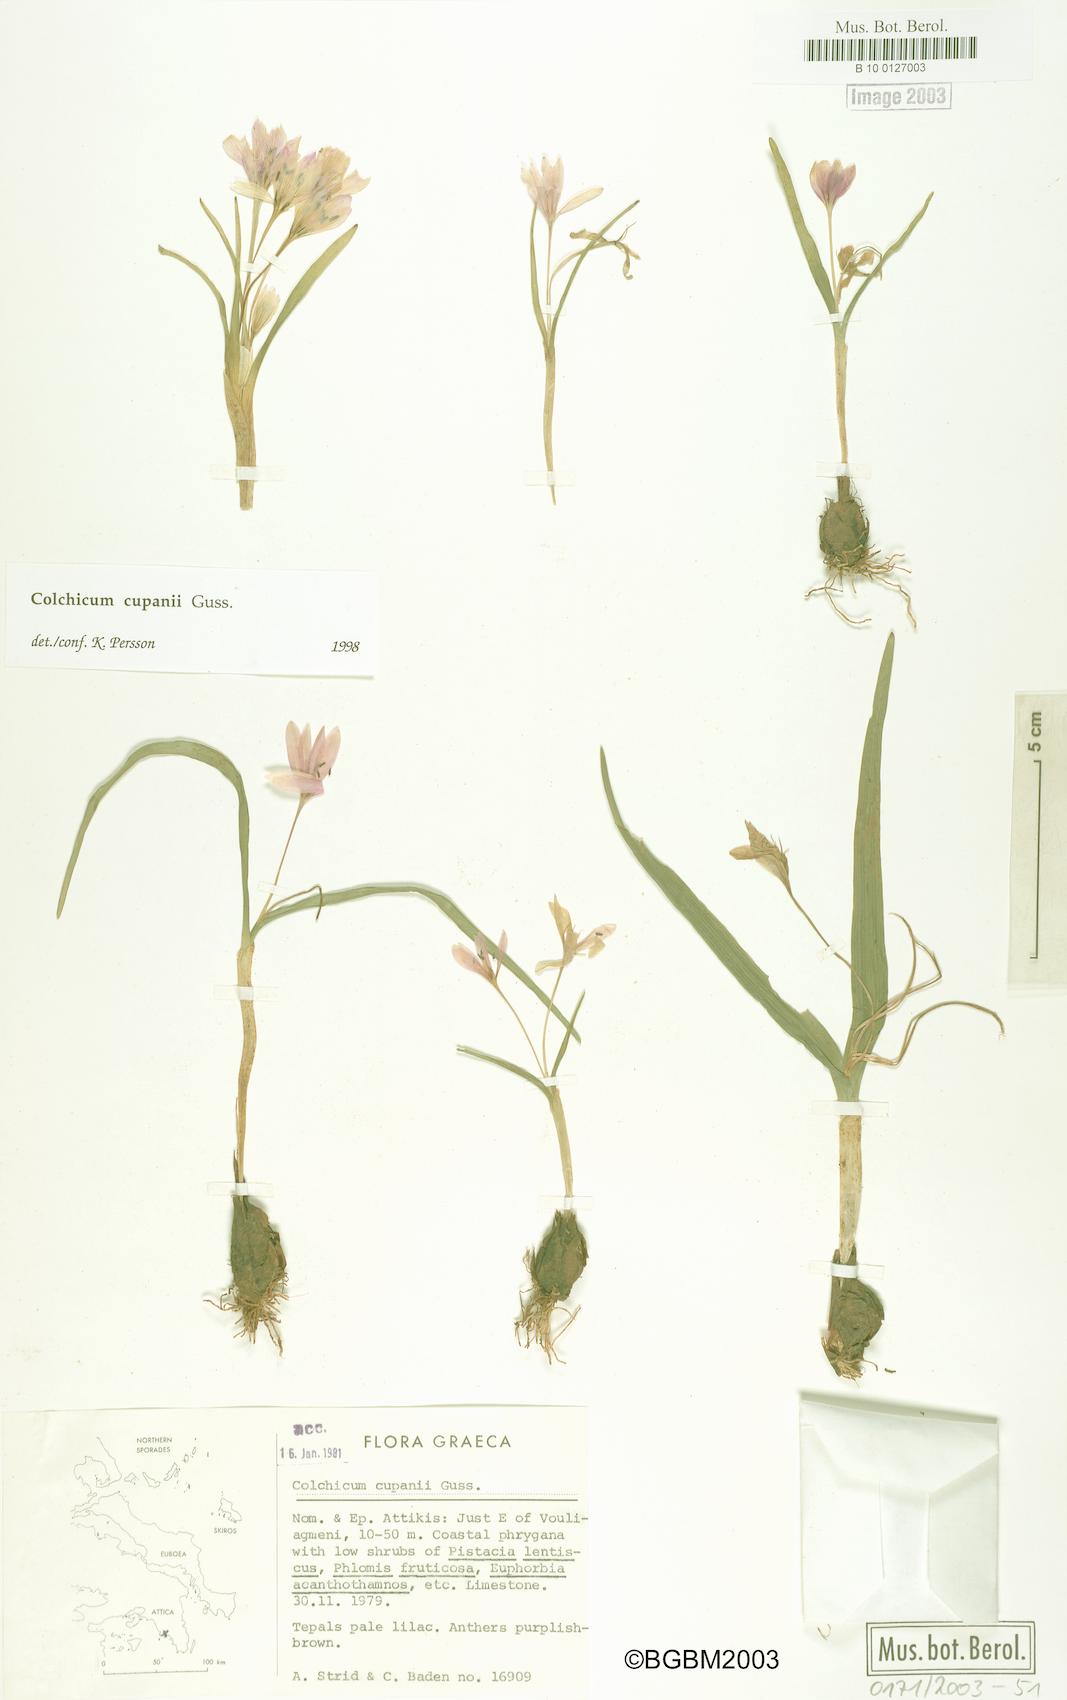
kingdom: Plantae
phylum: Tracheophyta
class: Liliopsida
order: Liliales
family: Colchicaceae
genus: Colchicum
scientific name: Colchicum cupanii
